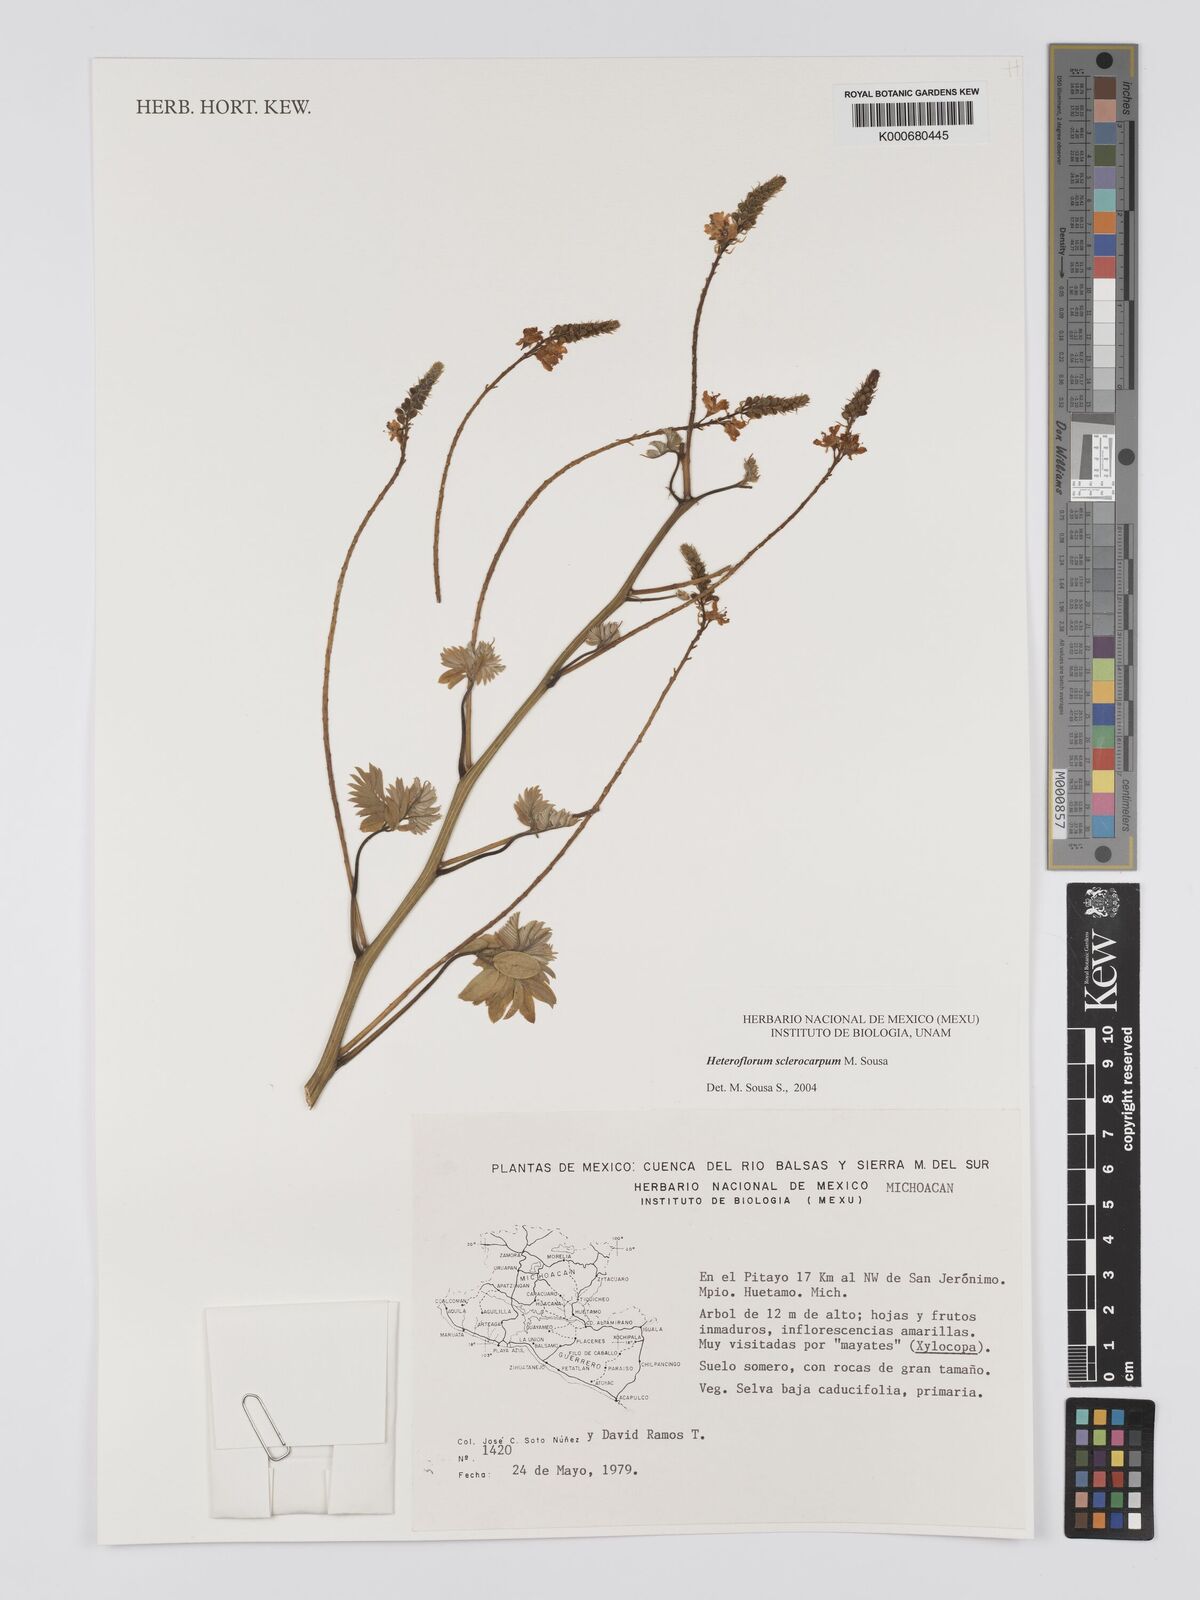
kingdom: Plantae
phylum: Tracheophyta
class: Magnoliopsida
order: Fabales
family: Fabaceae
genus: Heteroflorum
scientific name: Heteroflorum sclerocarpum
